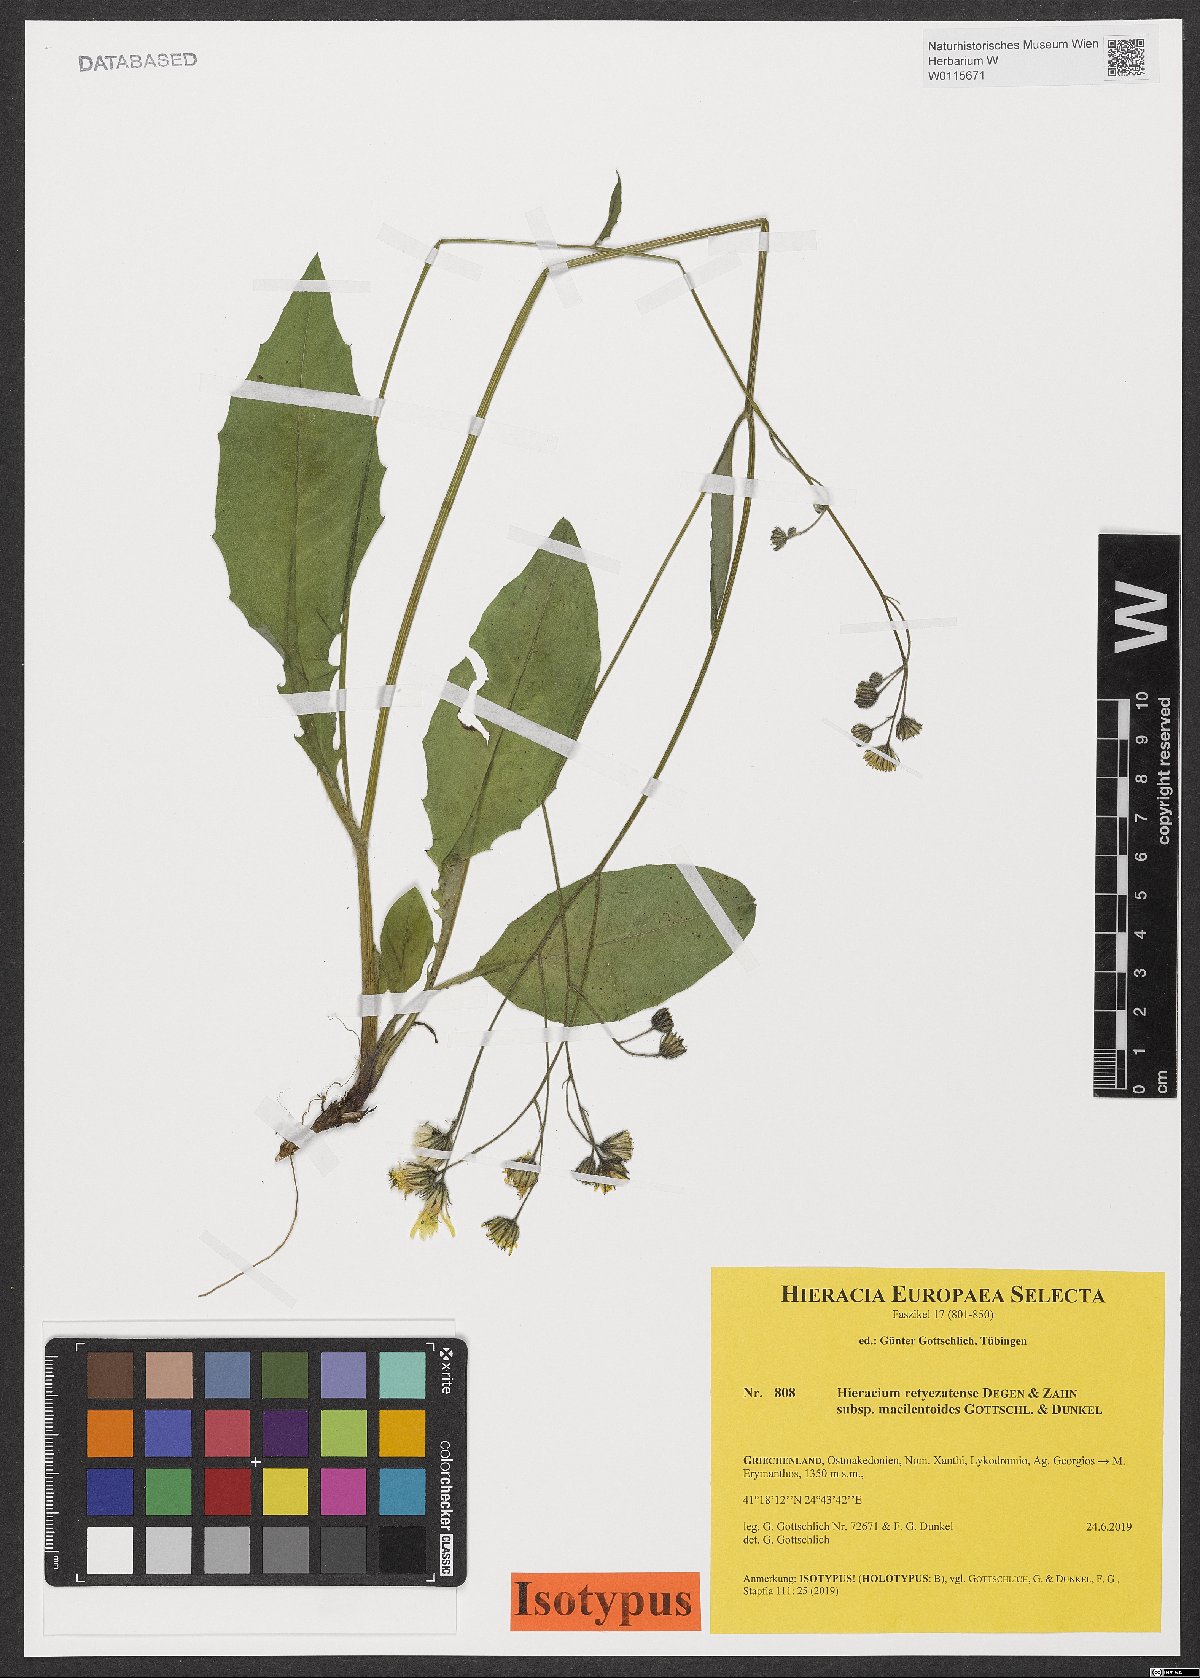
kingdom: Plantae
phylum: Tracheophyta
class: Magnoliopsida
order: Asterales
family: Asteraceae
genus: Hieracium
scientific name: Hieracium retyezatense
